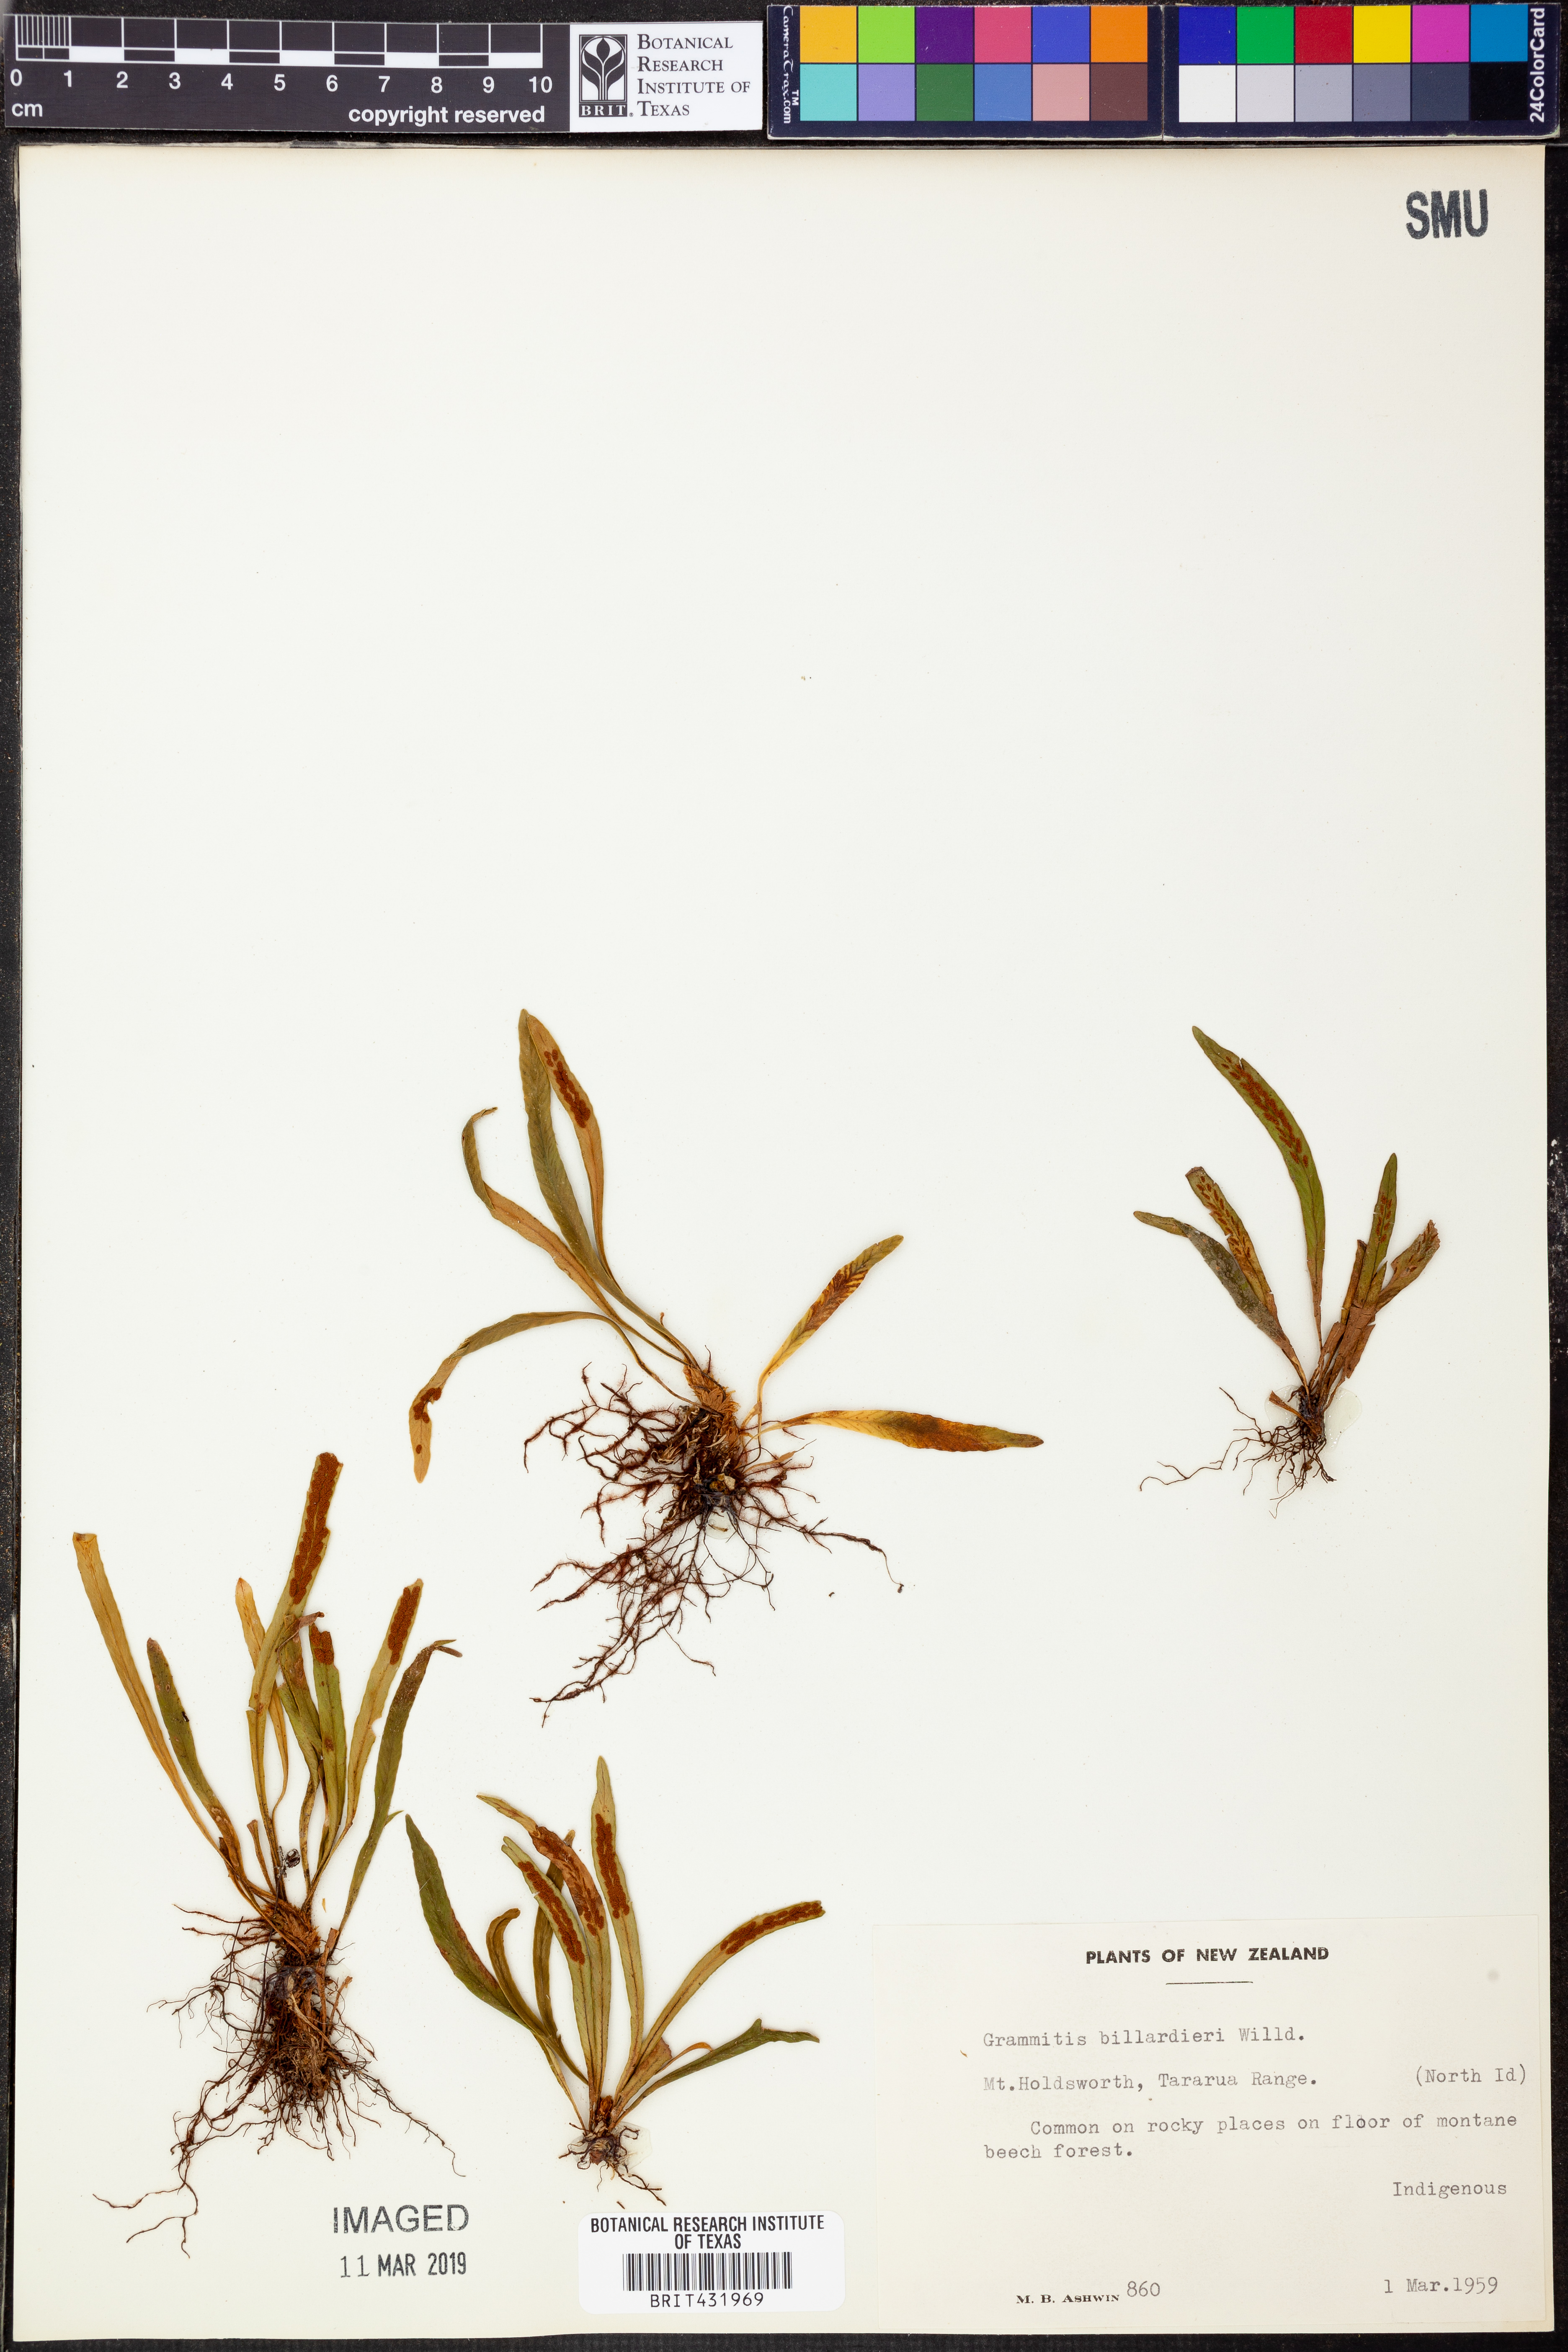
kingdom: Plantae
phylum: Tracheophyta
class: Polypodiopsida
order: Polypodiales
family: Polypodiaceae
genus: Notogrammitis
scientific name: Notogrammitis billardierei
